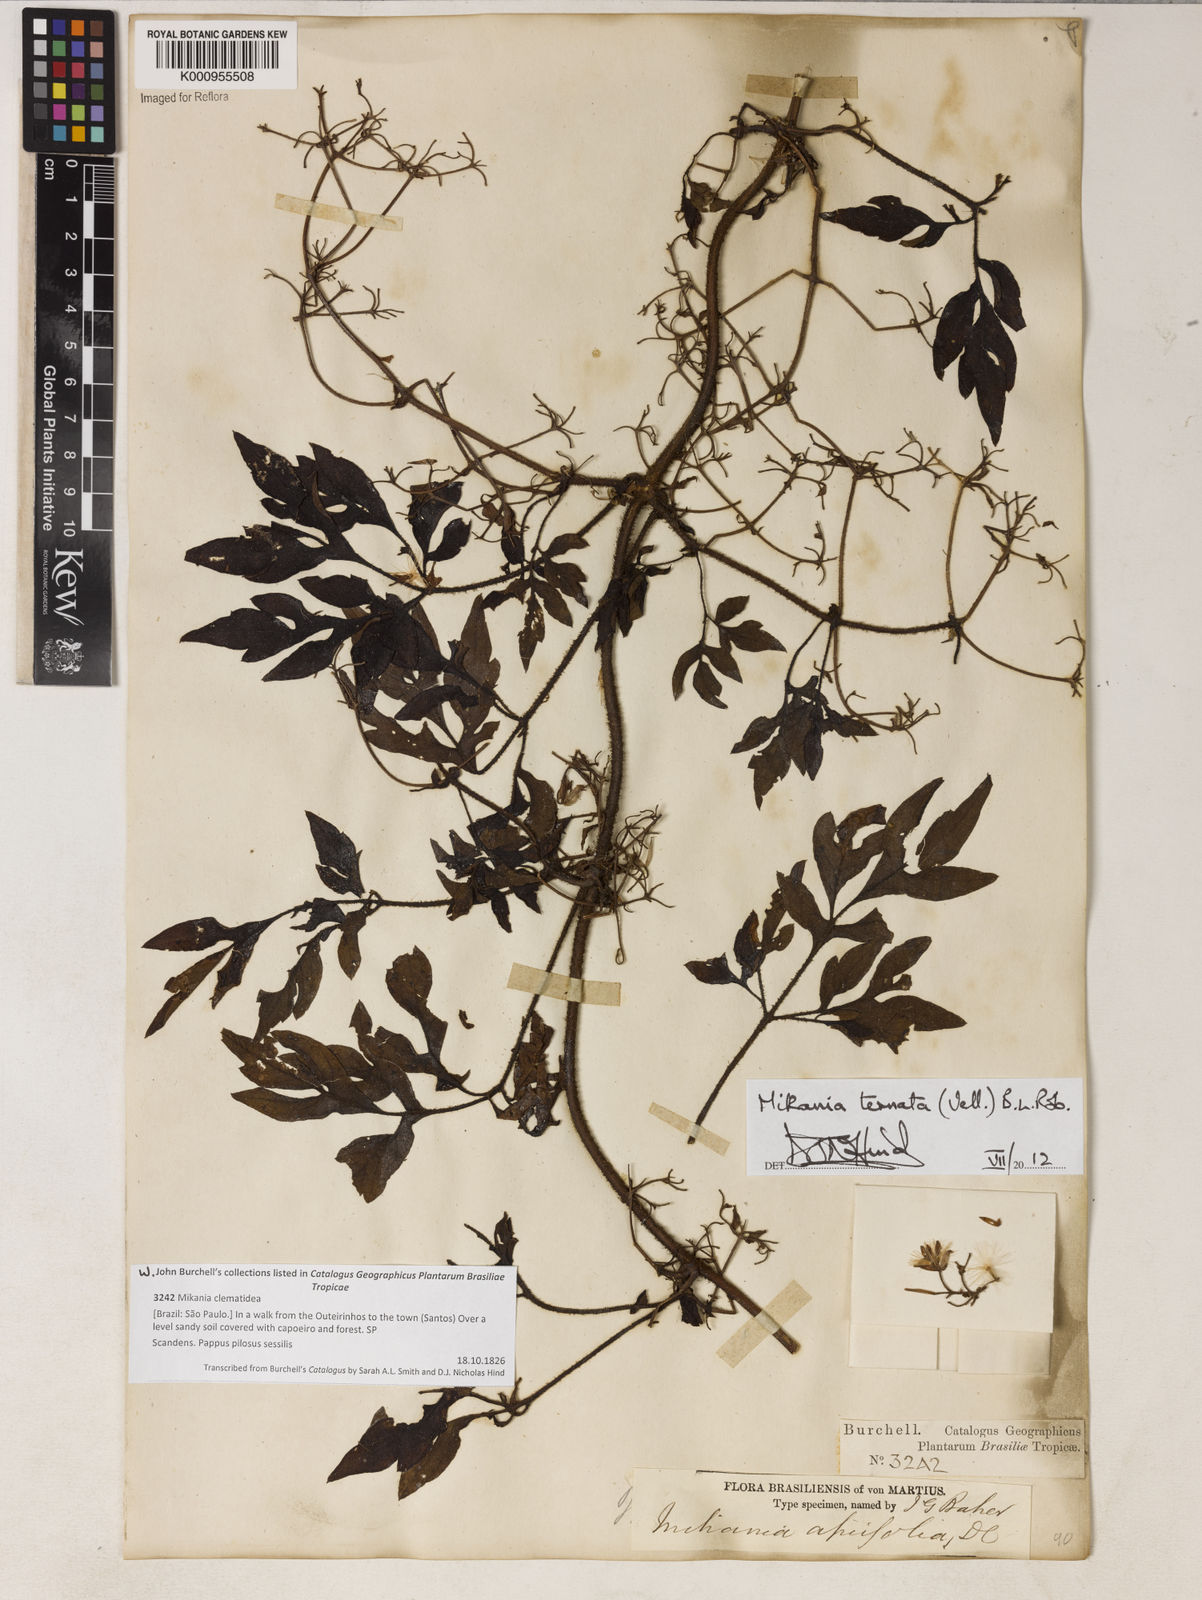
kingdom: Plantae
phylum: Tracheophyta
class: Magnoliopsida
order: Asterales
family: Asteraceae
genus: Mikania
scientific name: Mikania ternata
